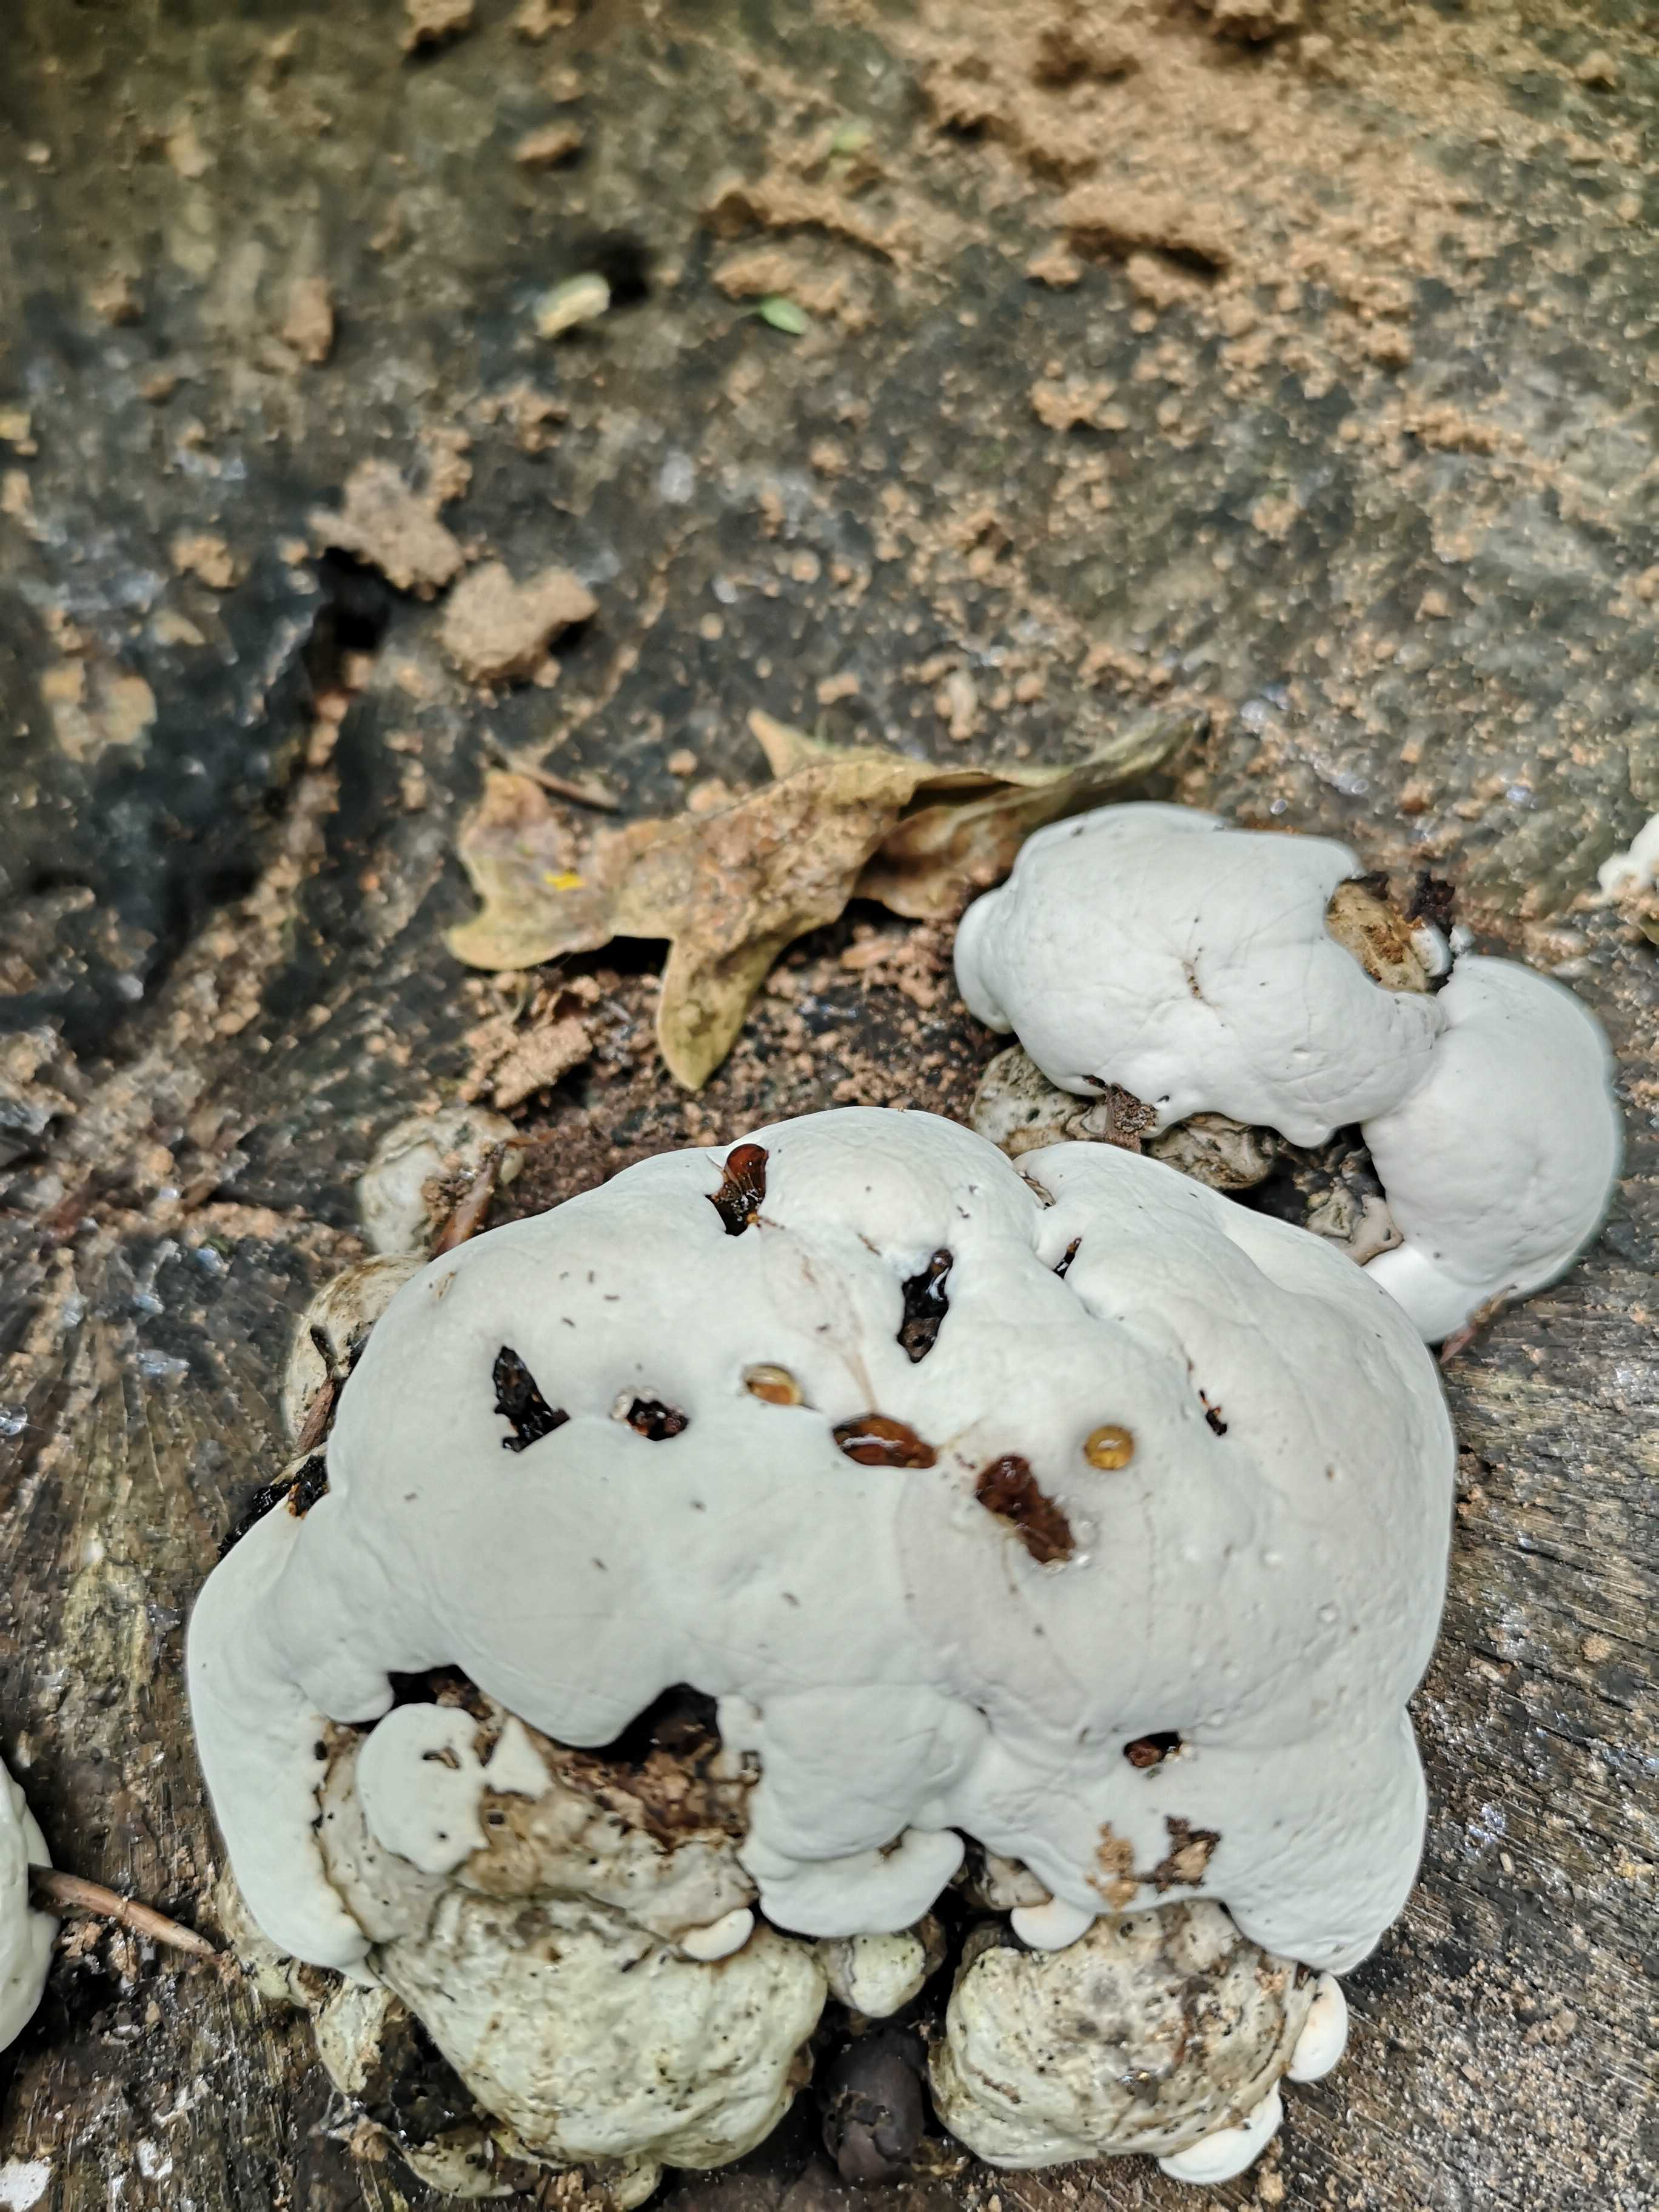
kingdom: Fungi
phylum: Basidiomycota
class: Agaricomycetes
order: Polyporales
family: Polyporaceae
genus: Fomes
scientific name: Fomes fomentarius
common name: tøndersvamp
